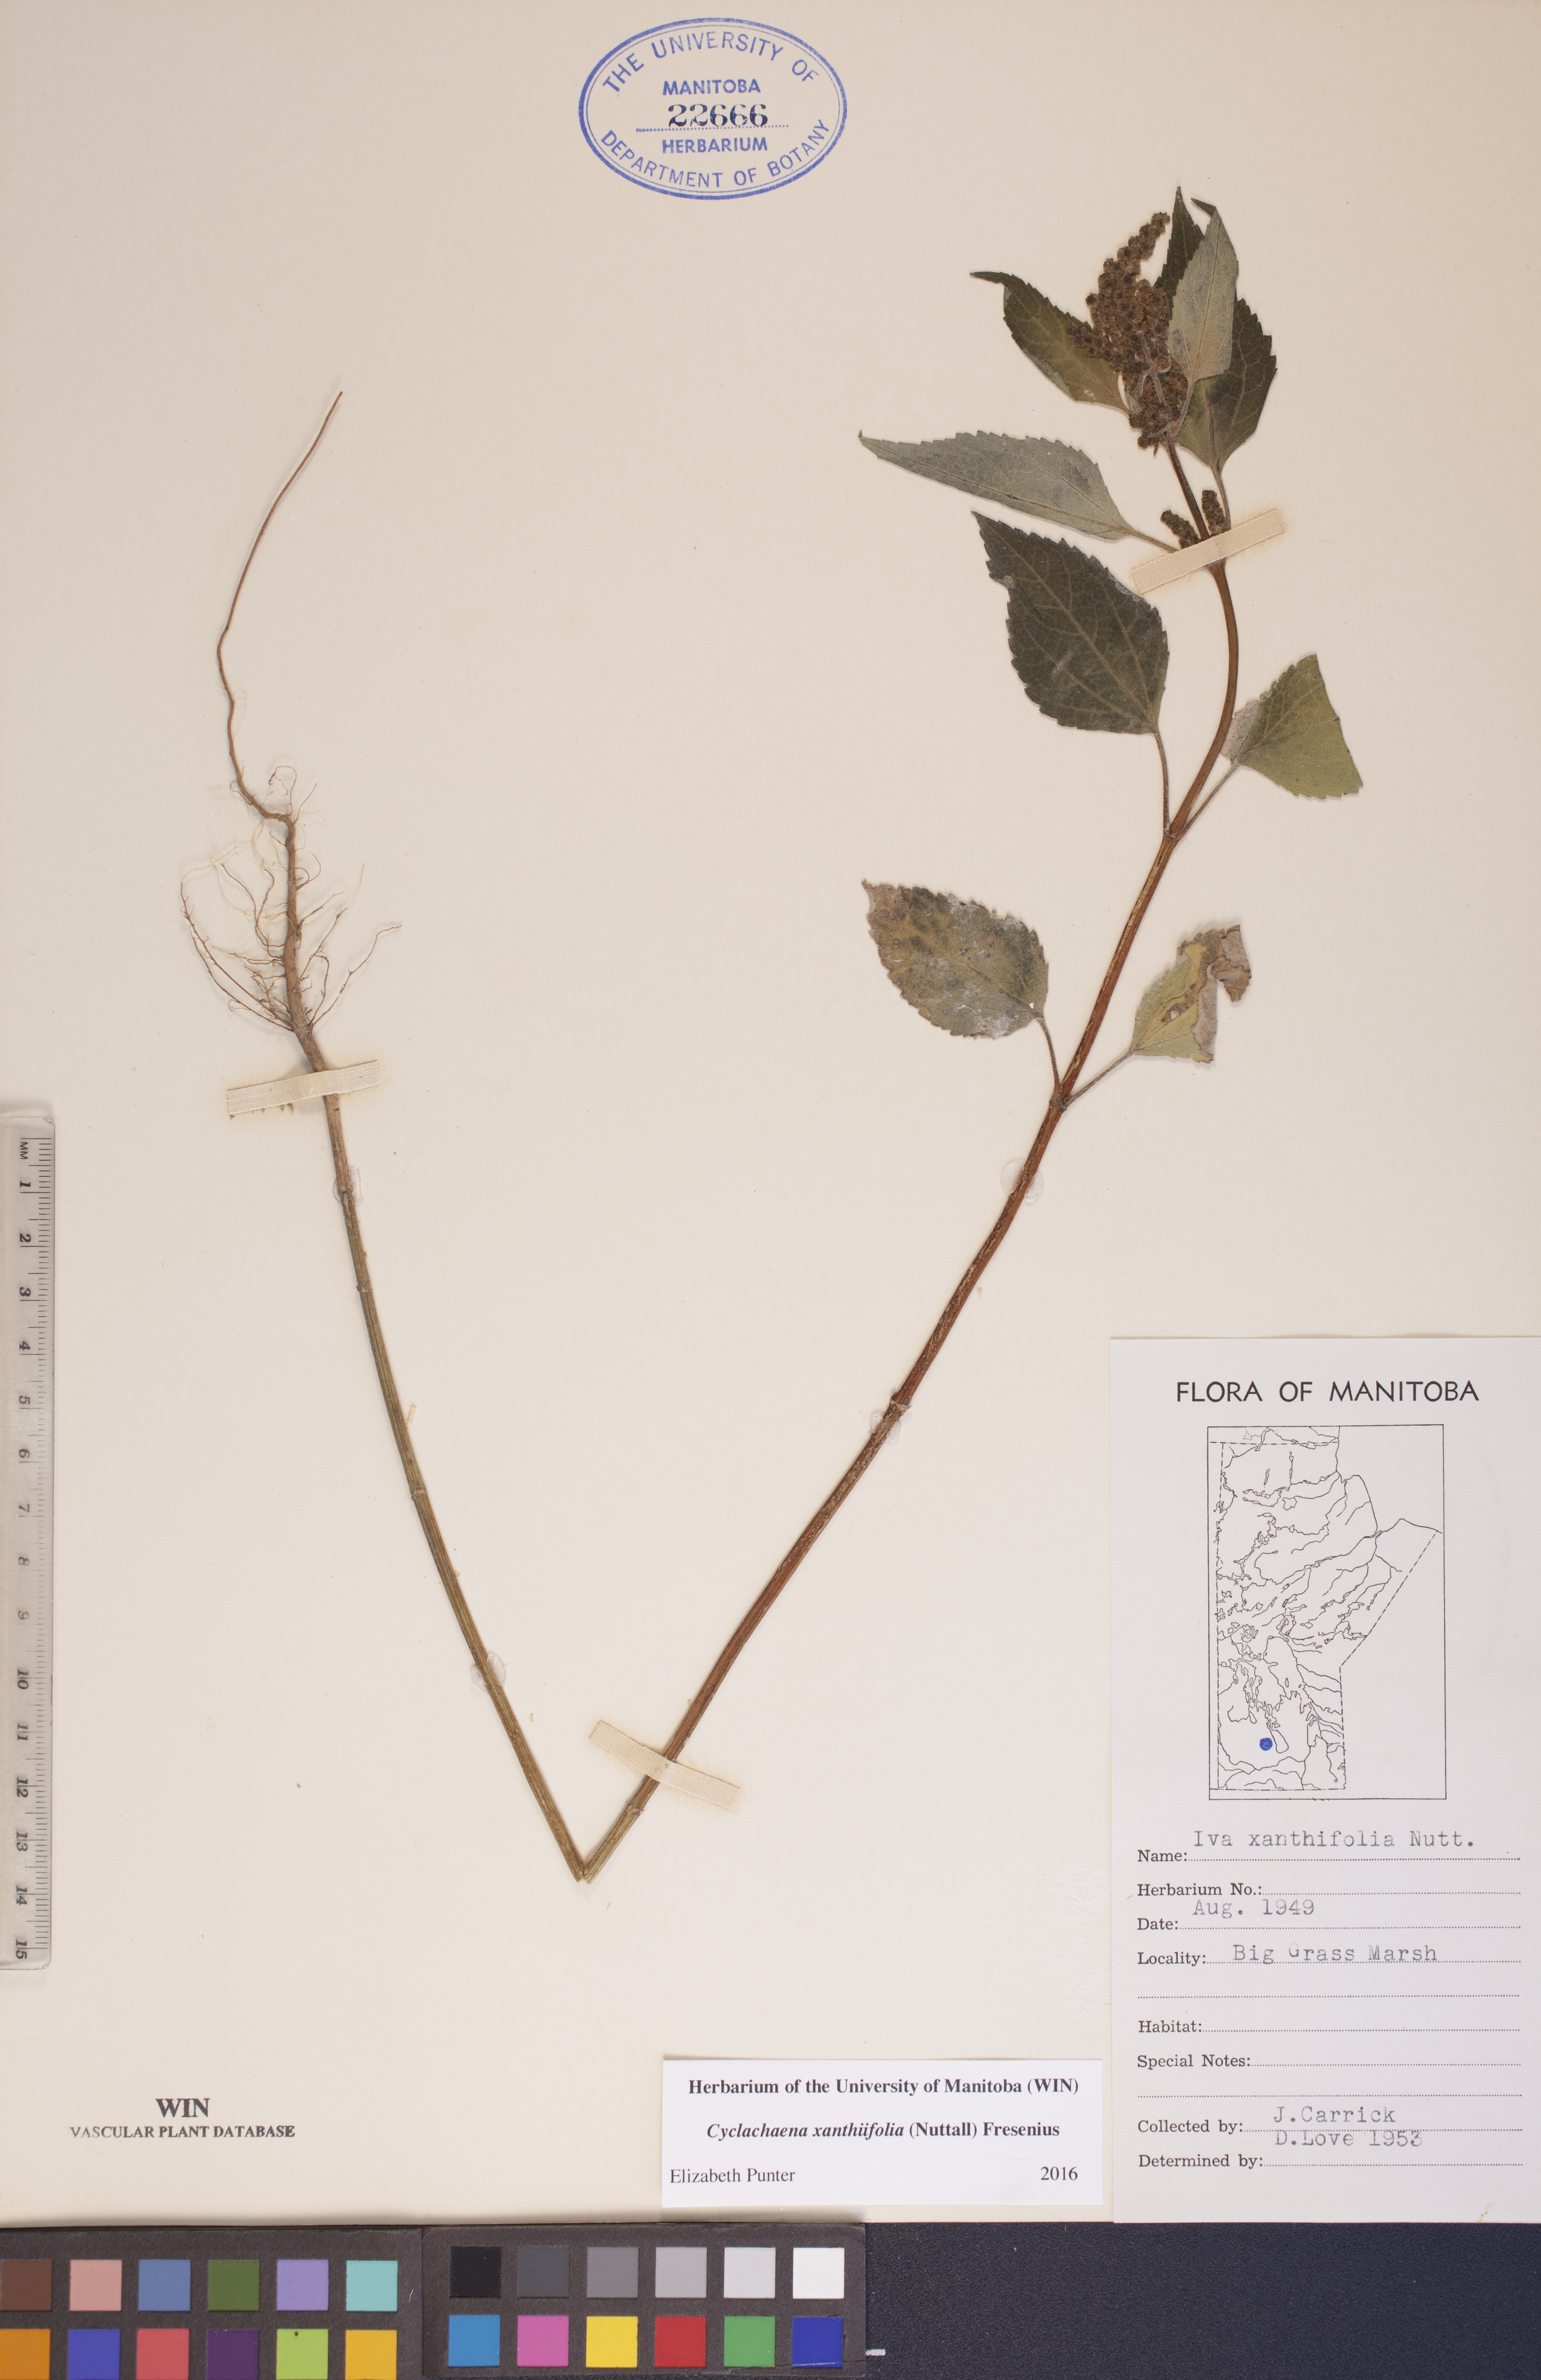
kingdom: Plantae
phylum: Tracheophyta
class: Magnoliopsida
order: Asterales
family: Asteraceae
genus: Cyclachaena
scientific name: Cyclachaena xanthiifolia
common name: Giant sumpweed
